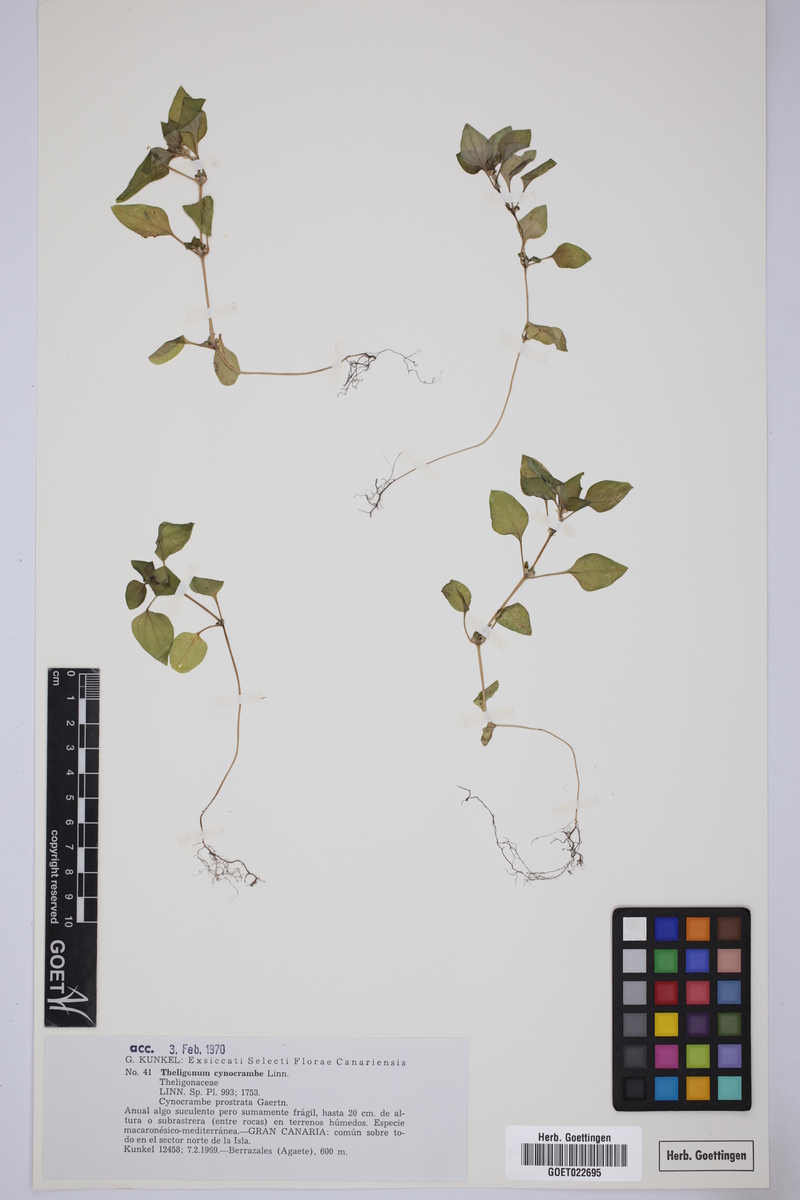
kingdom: Plantae
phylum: Tracheophyta
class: Magnoliopsida
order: Gentianales
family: Rubiaceae
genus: Theligonum
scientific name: Theligonum cynocrambe
